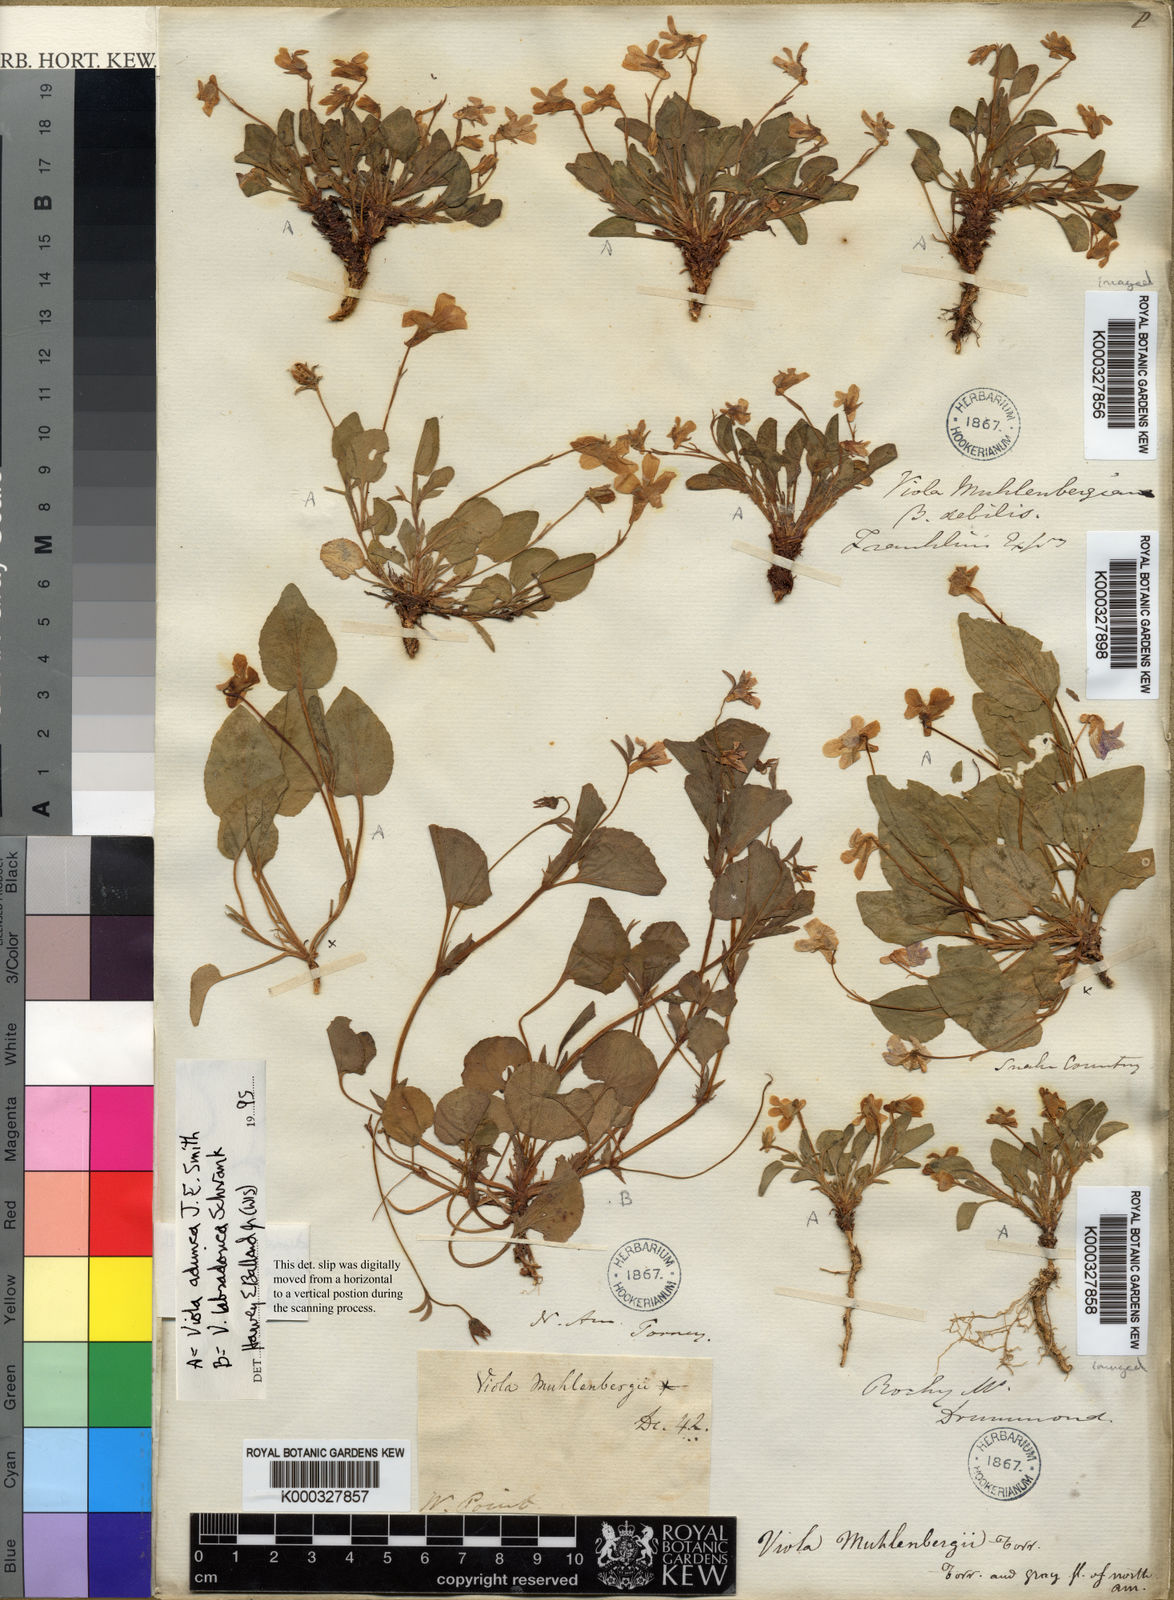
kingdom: Plantae
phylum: Tracheophyta
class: Magnoliopsida
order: Malpighiales
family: Violaceae
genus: Viola
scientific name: Viola adunca
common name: Sand violet
